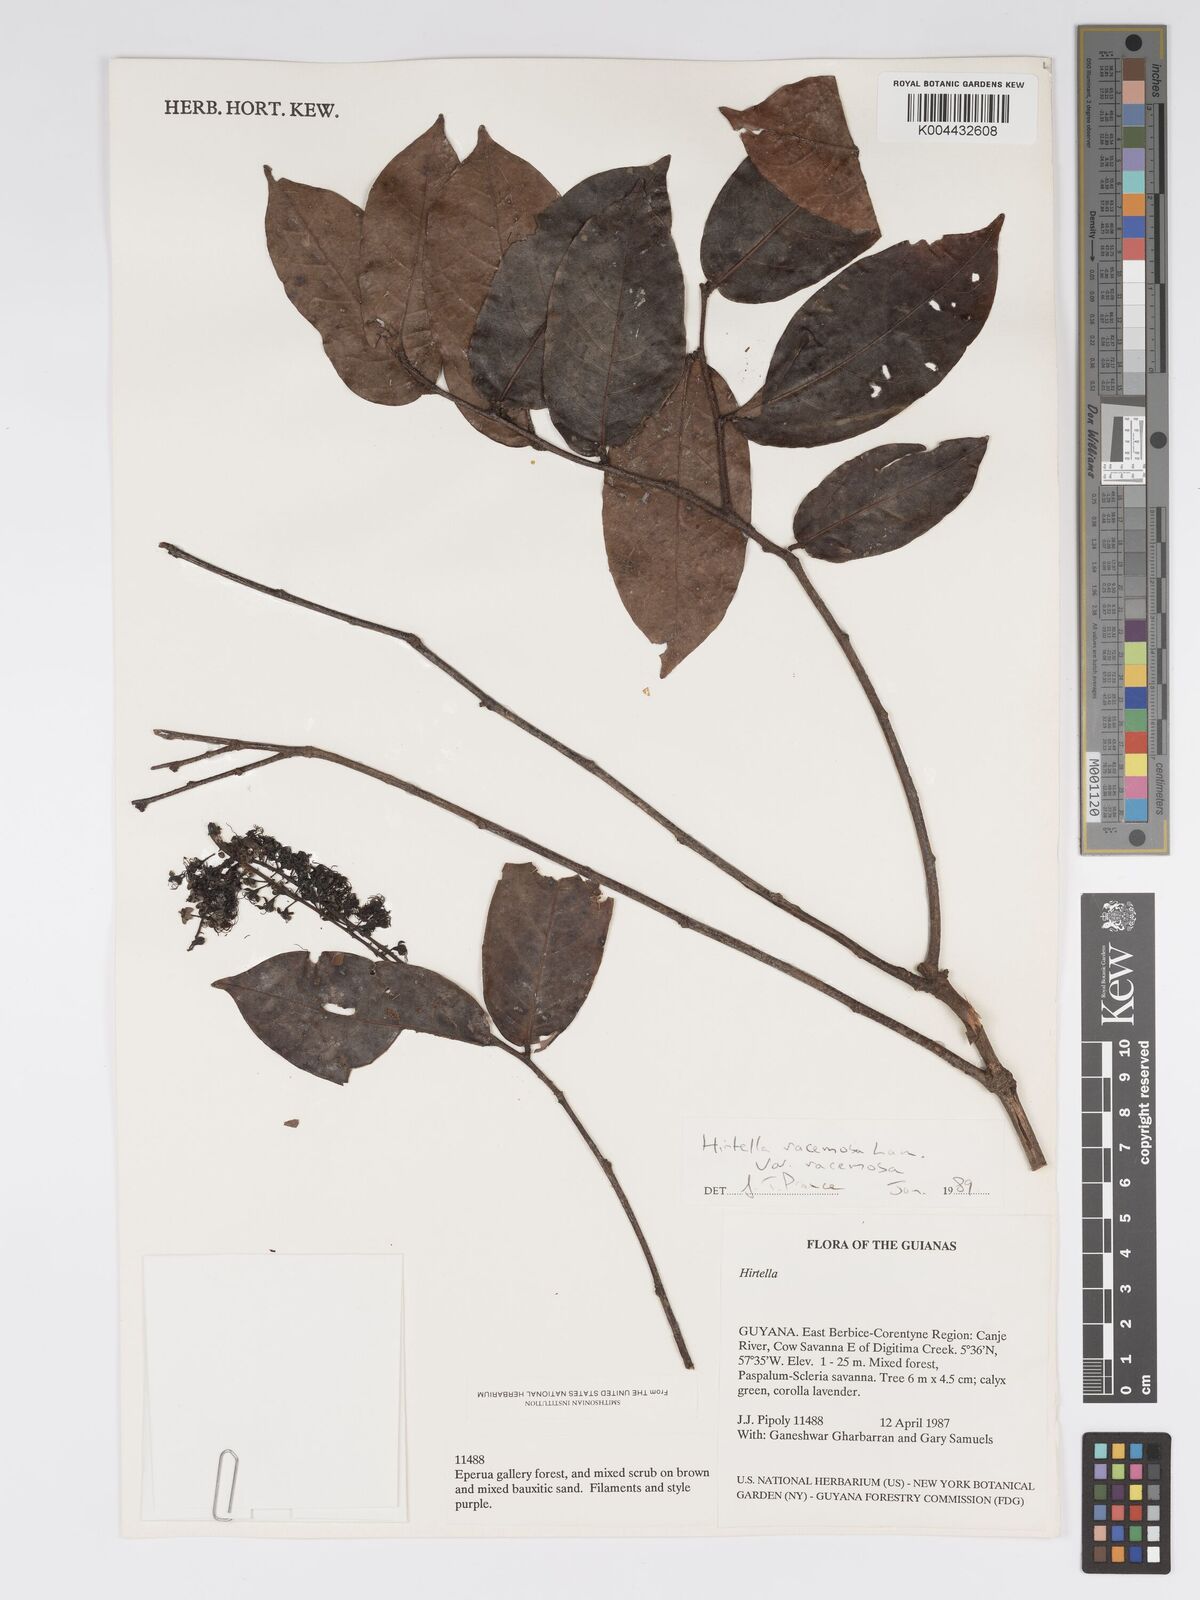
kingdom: Plantae
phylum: Tracheophyta
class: Magnoliopsida
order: Malpighiales
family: Chrysobalanaceae
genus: Hirtella
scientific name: Hirtella racemosa
